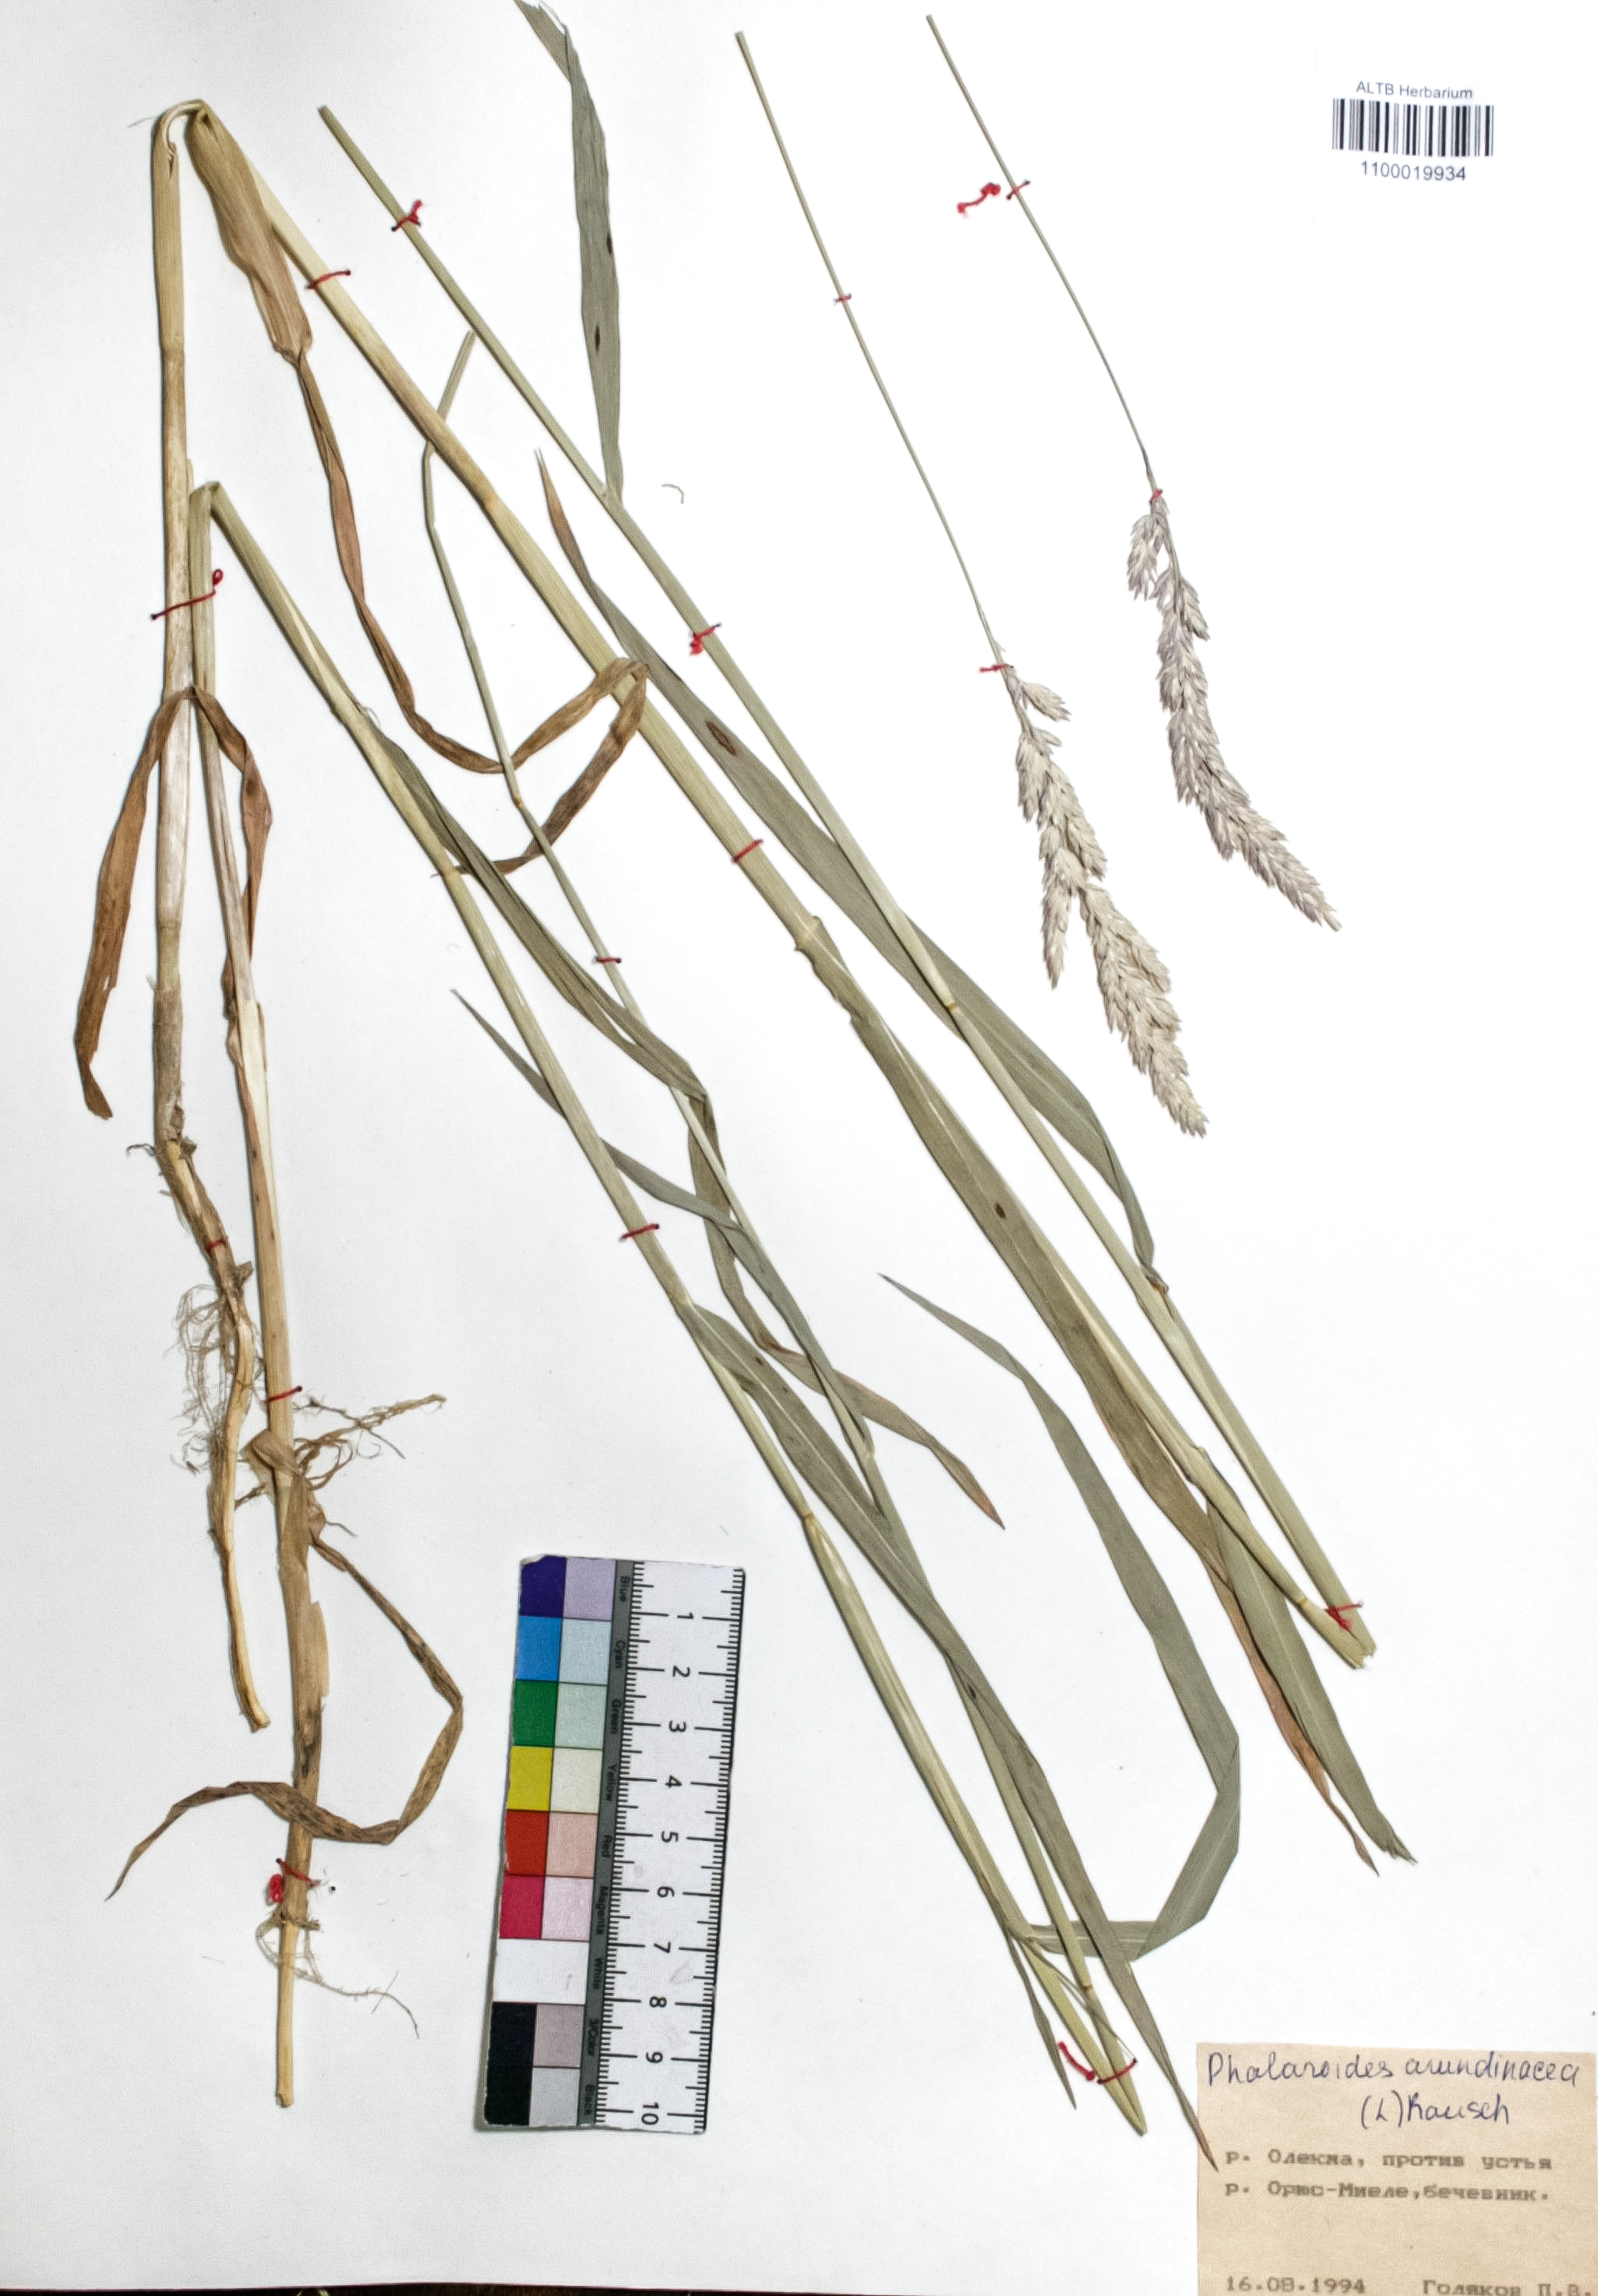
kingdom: Plantae
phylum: Tracheophyta
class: Liliopsida
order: Poales
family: Poaceae
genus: Phalaris
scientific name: Phalaris arundinacea
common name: Reed canary-grass
